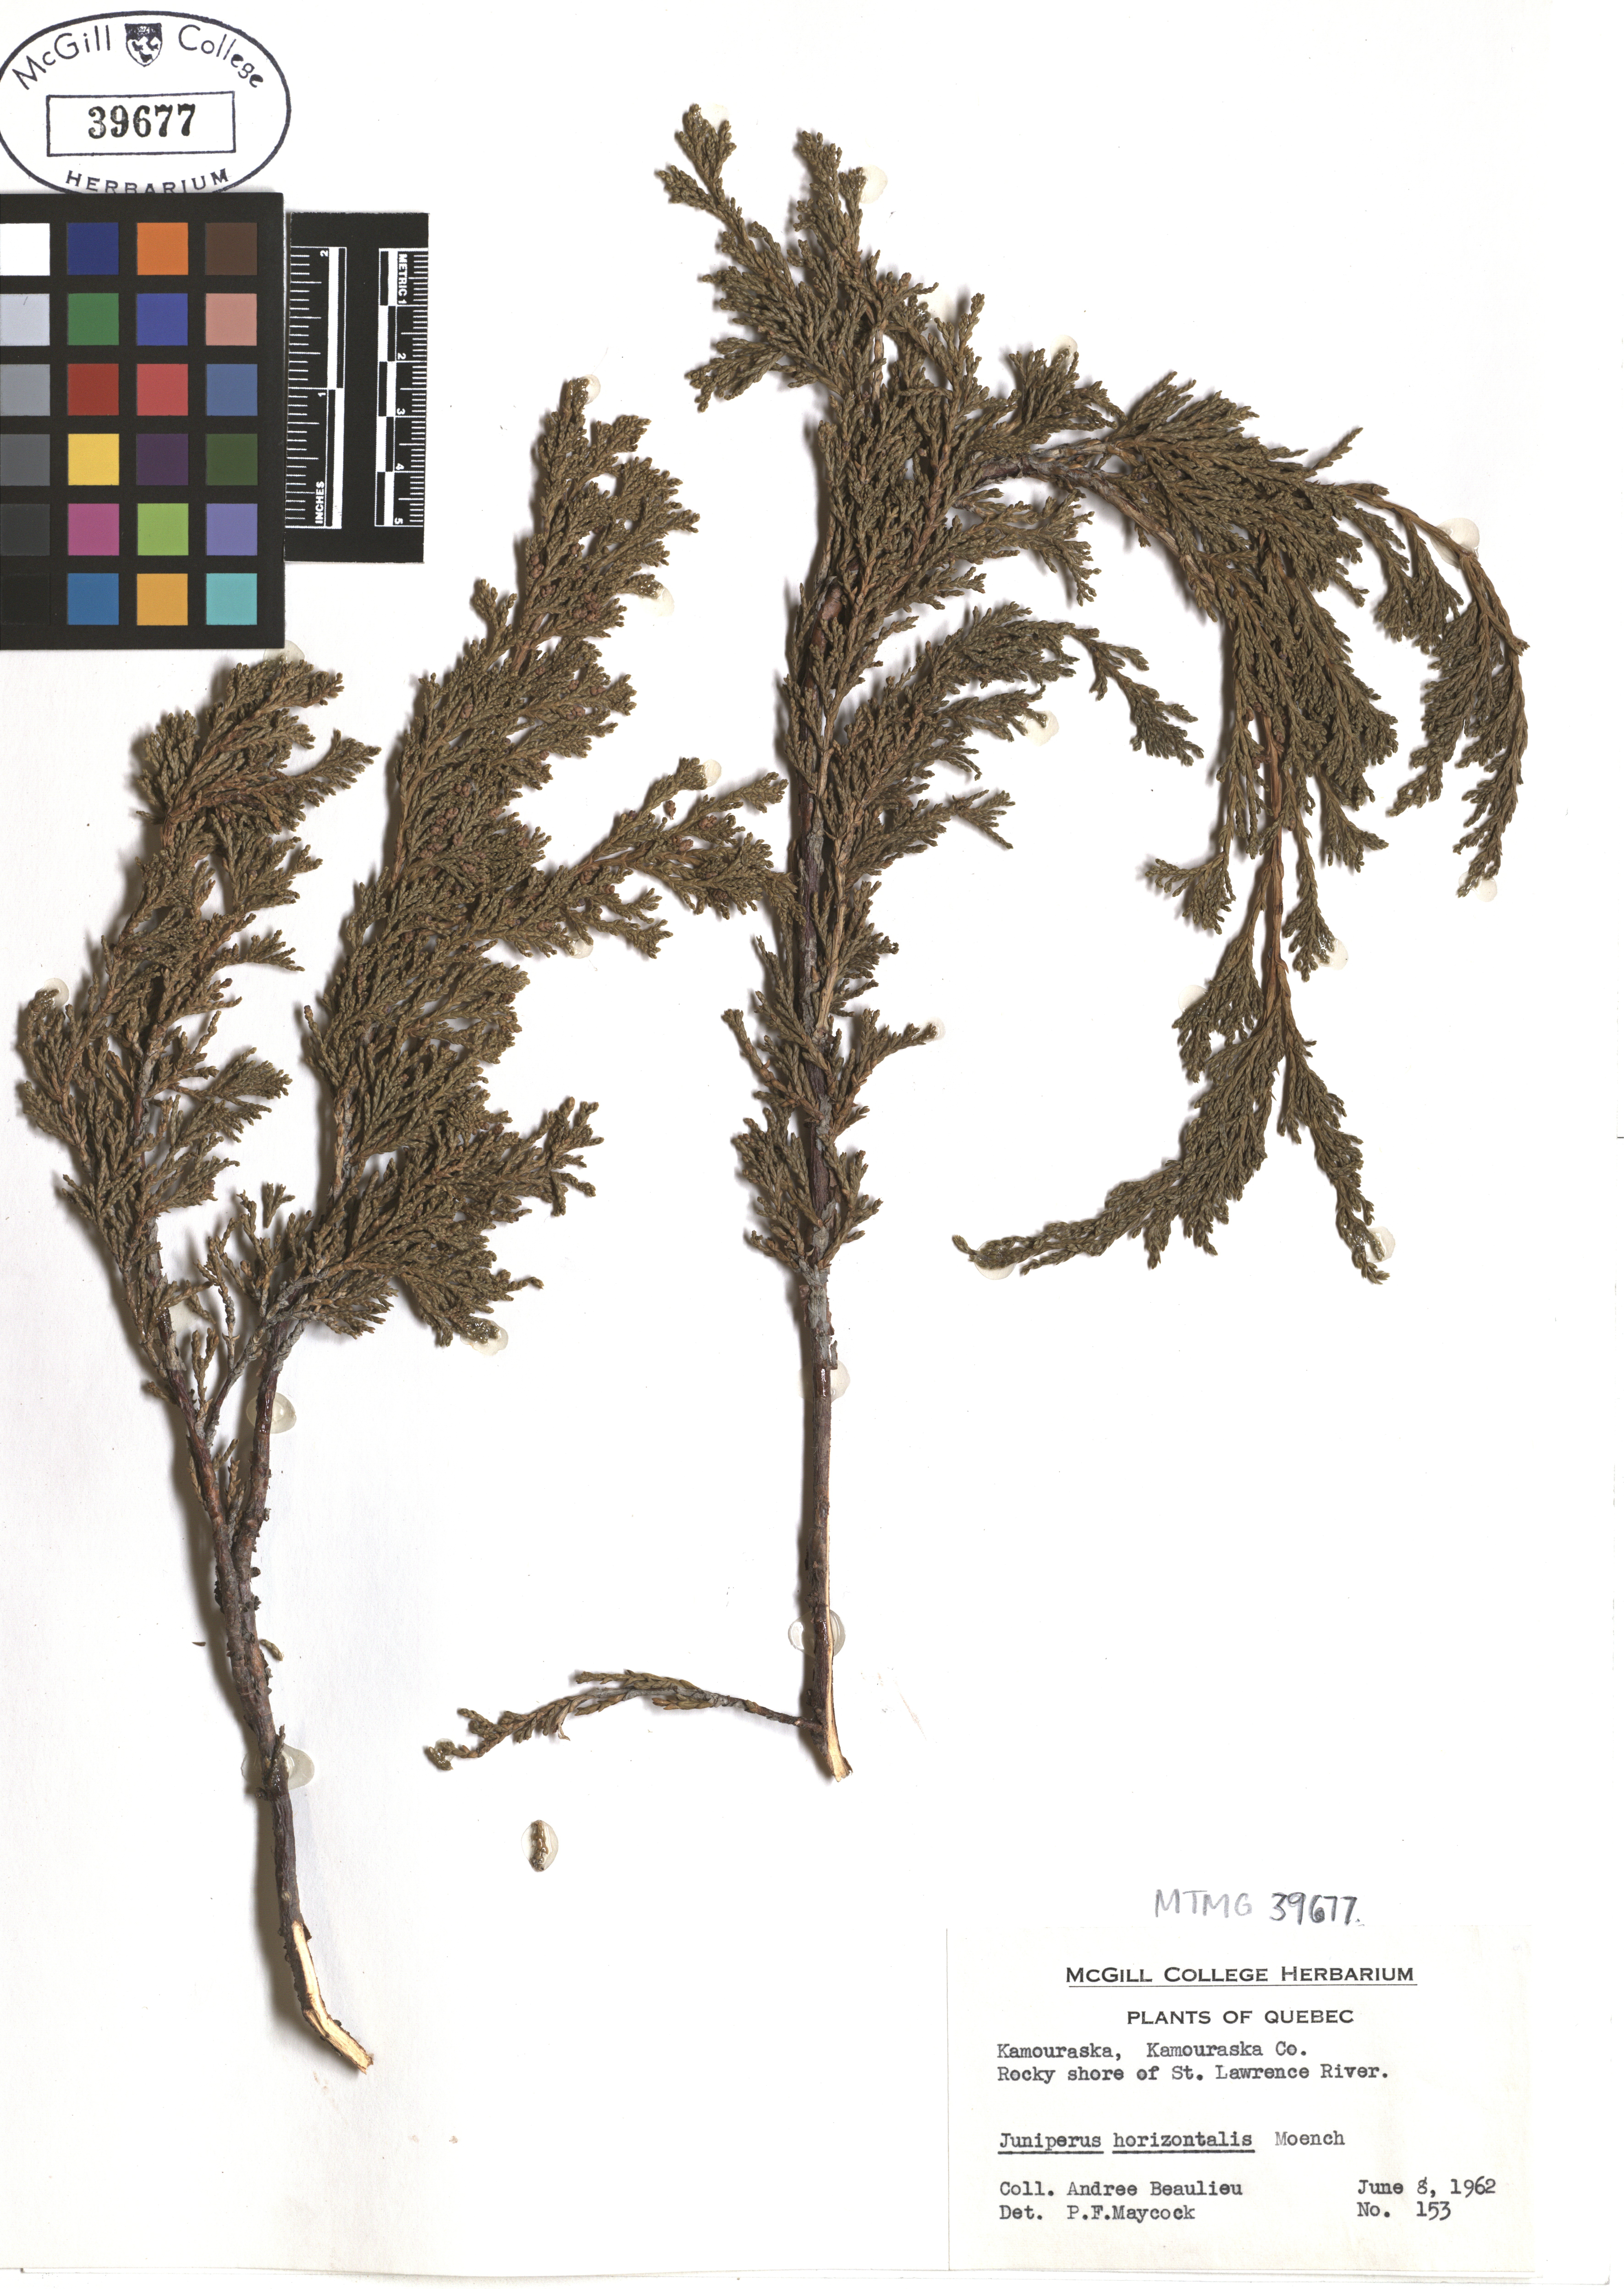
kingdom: Plantae
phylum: Tracheophyta
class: Pinopsida
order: Pinales
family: Cupressaceae
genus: Juniperus
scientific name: Juniperus horizontalis
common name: Creeping juniper
